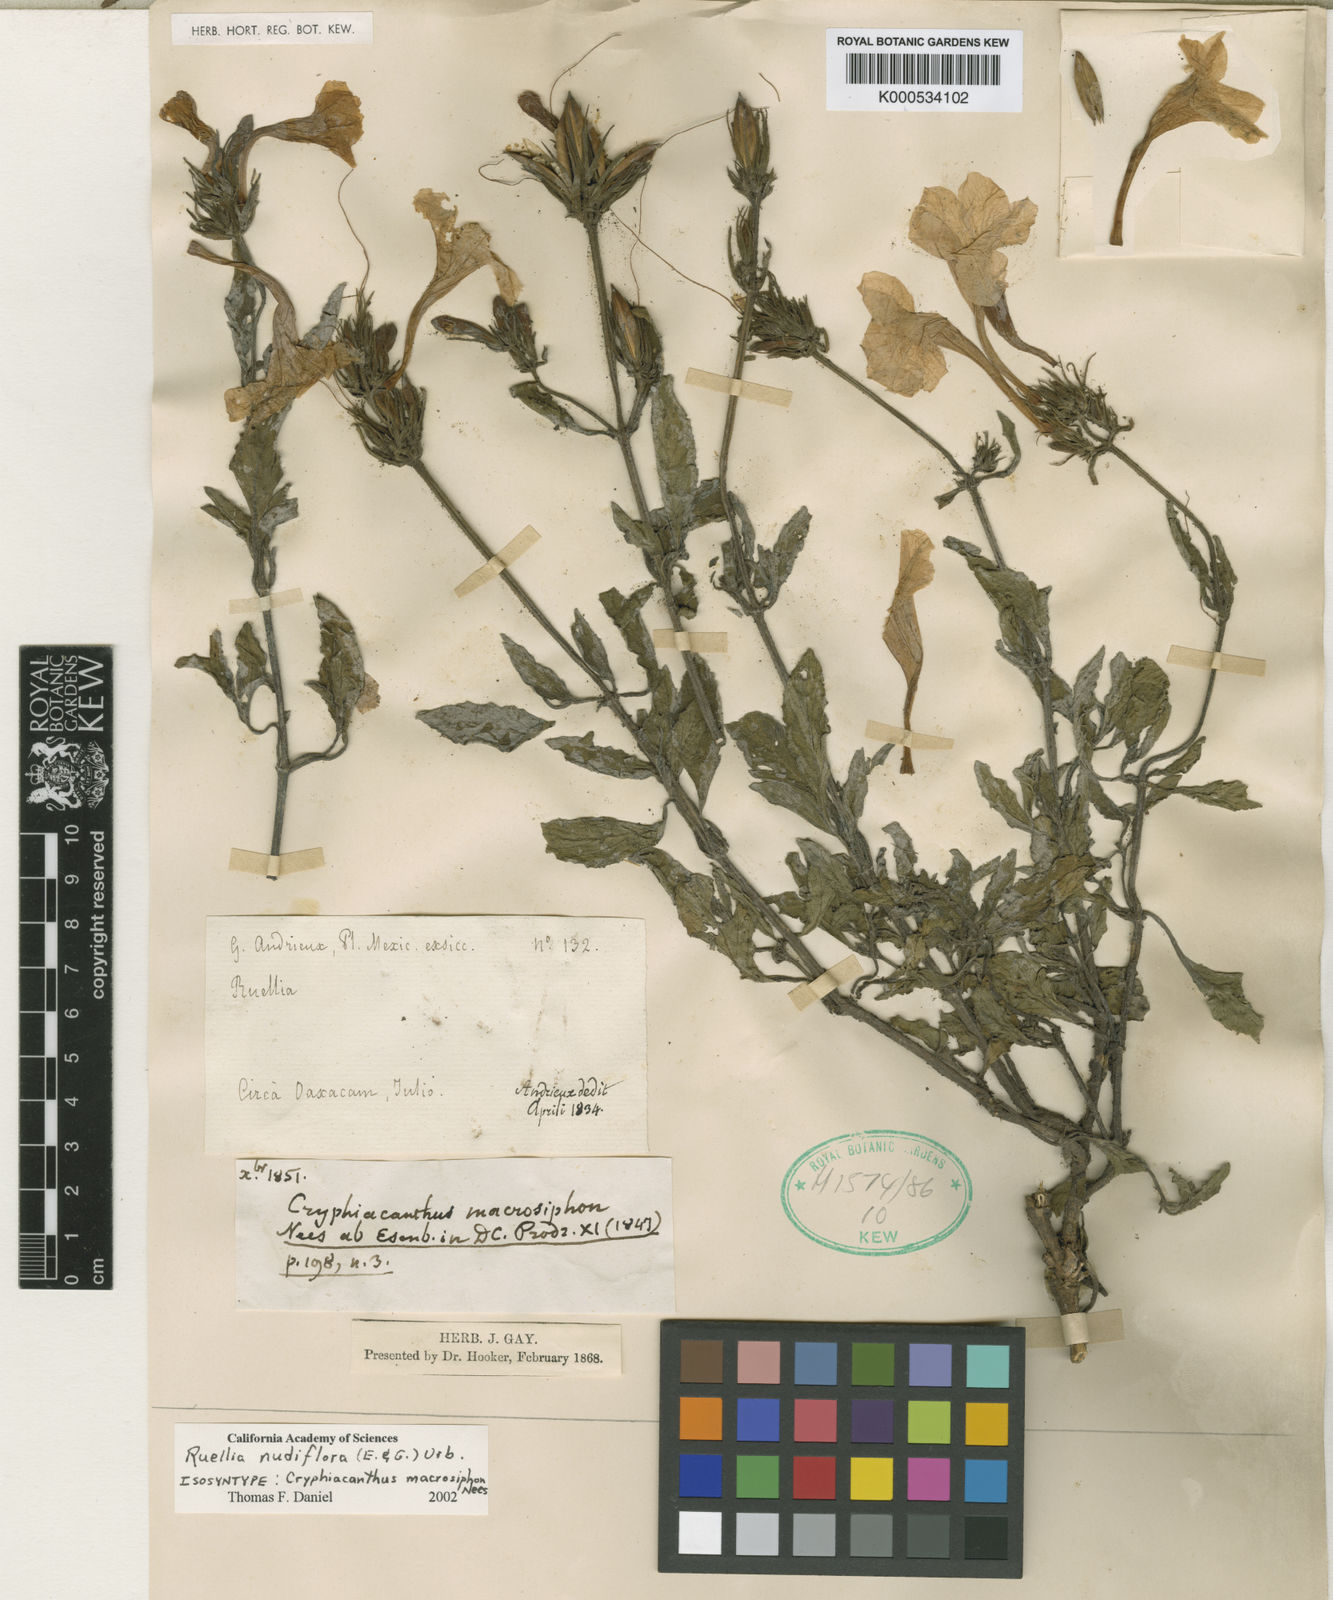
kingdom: Plantae
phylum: Tracheophyta
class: Magnoliopsida
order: Lamiales
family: Acanthaceae
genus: Ruellia
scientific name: Ruellia ciliatiflora
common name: Hairyflower wild petunia
